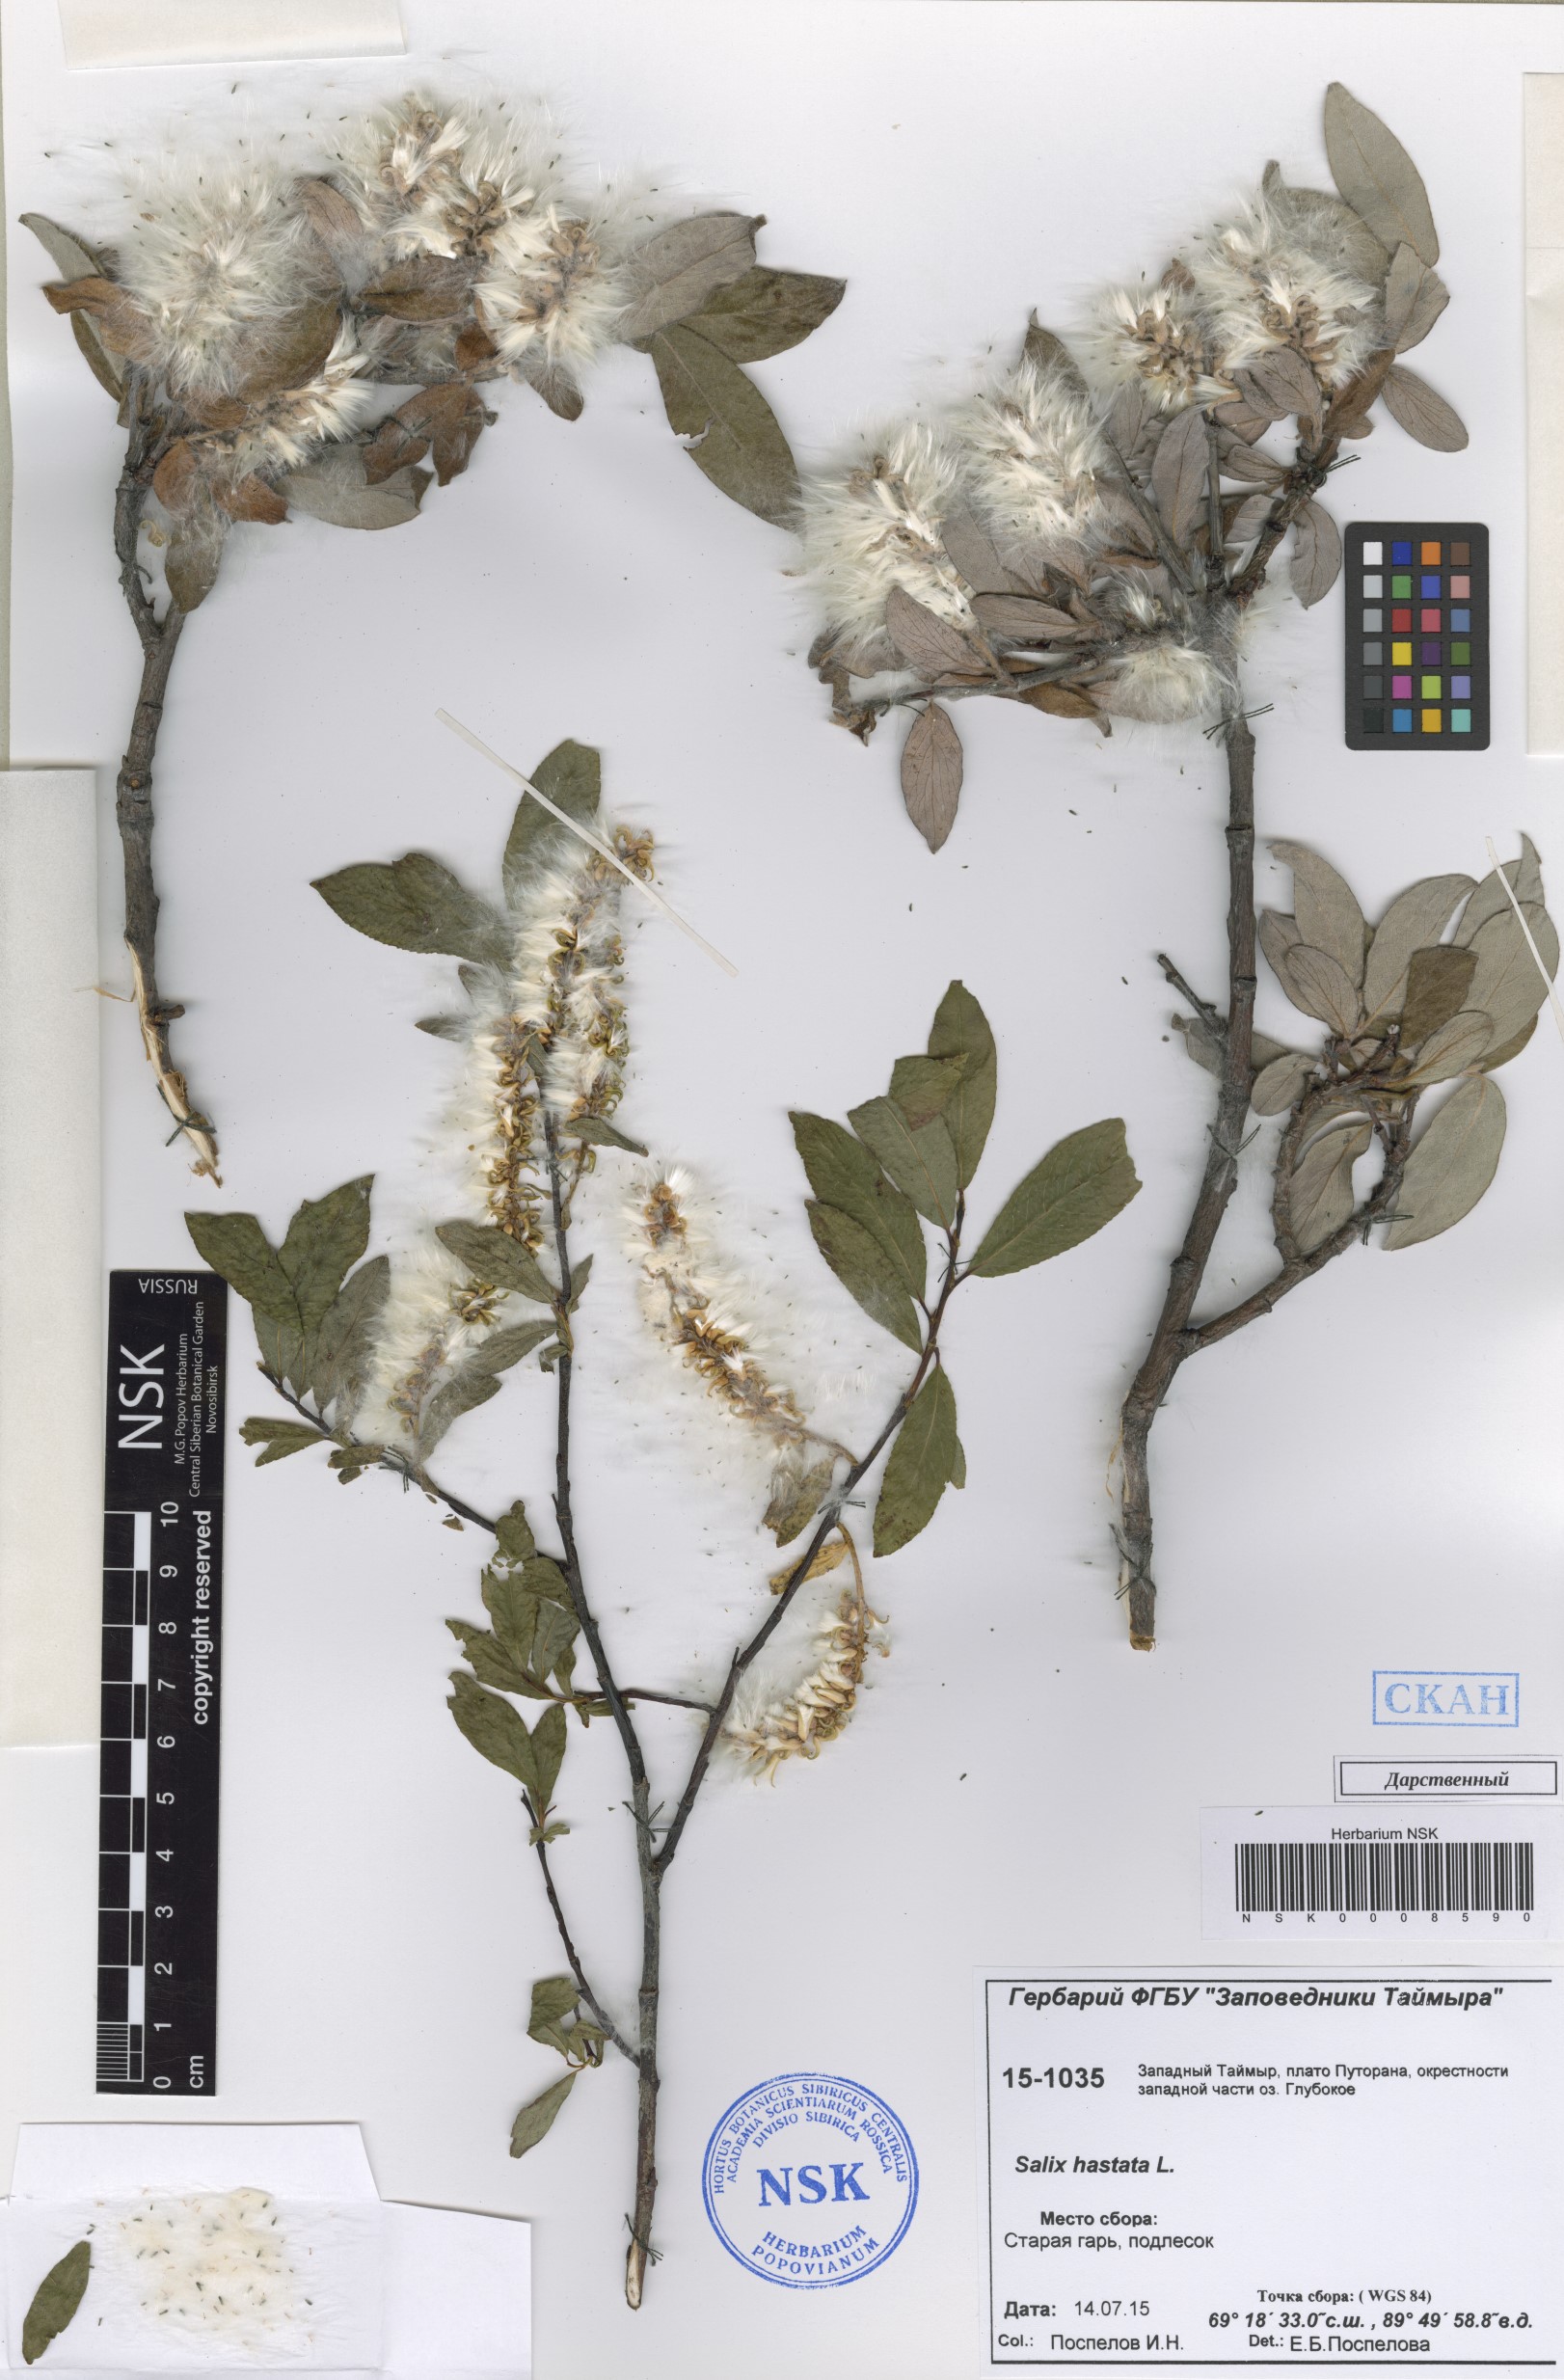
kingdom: Plantae
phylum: Tracheophyta
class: Magnoliopsida
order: Malpighiales
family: Salicaceae
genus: Salix
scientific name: Salix hastata
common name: Halberd willow
